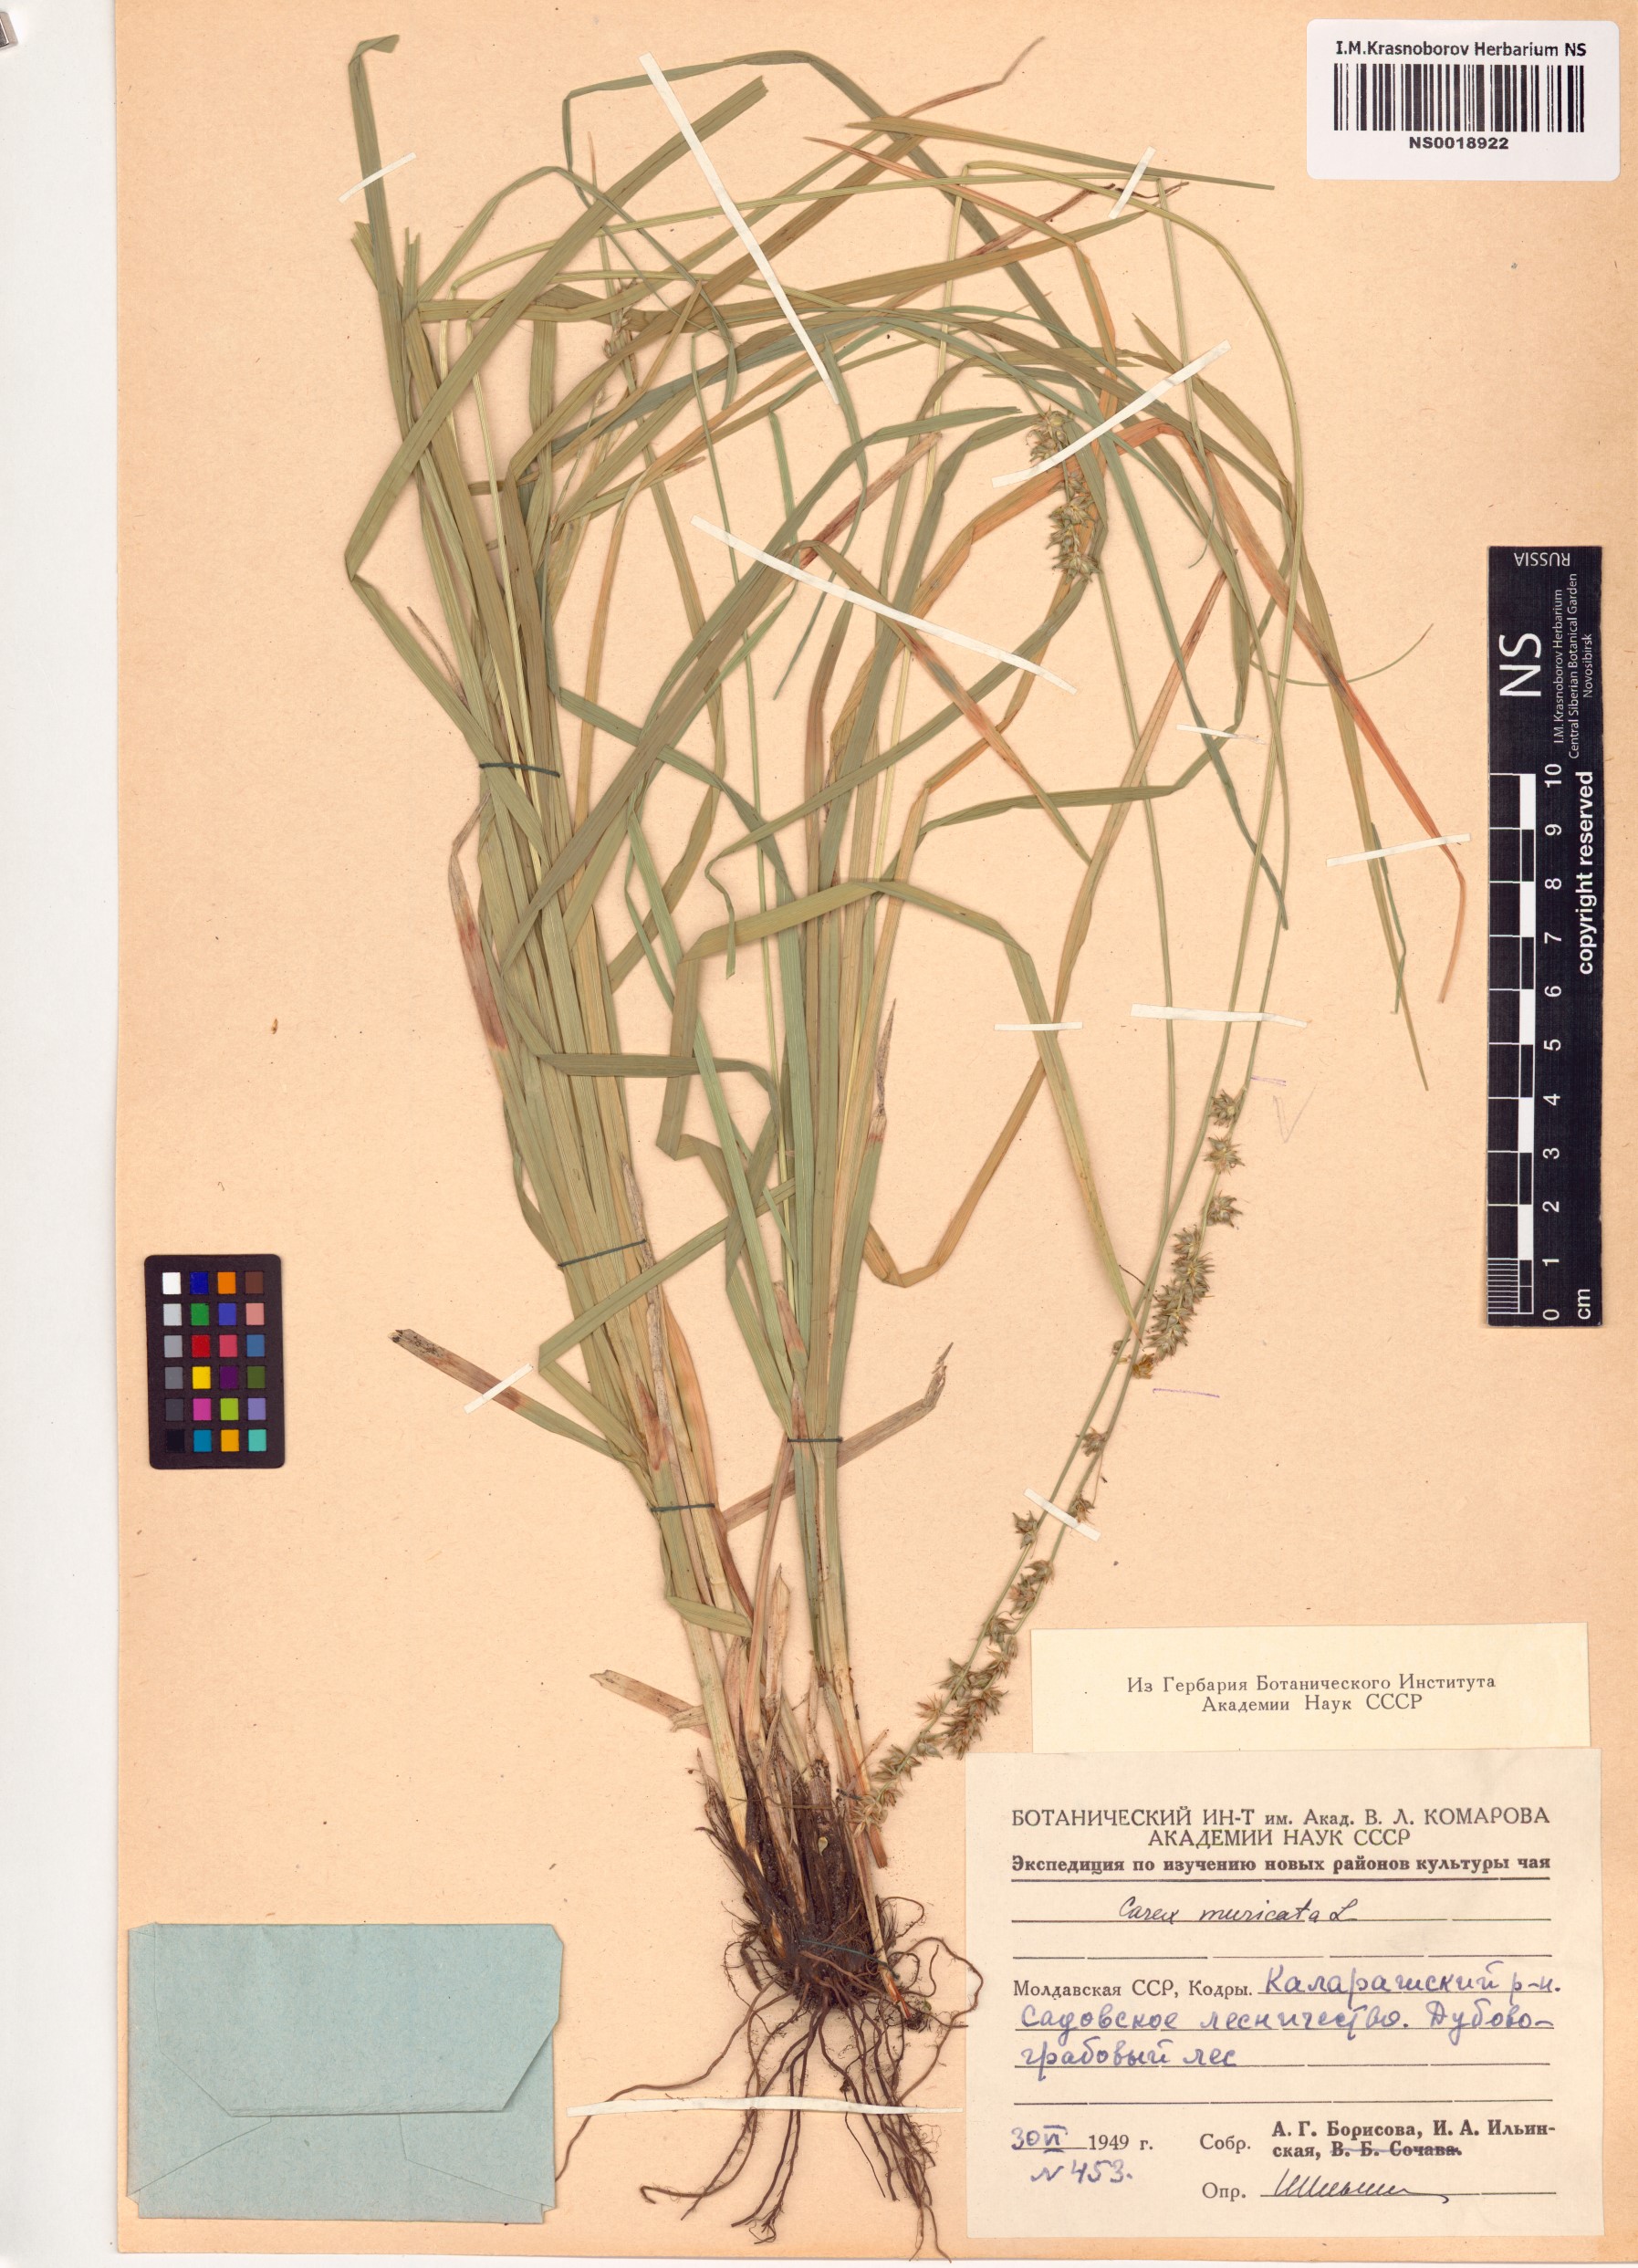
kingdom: Plantae
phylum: Tracheophyta
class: Liliopsida
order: Poales
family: Cyperaceae
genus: Carex
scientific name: Carex muricata
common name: Rough sedge
